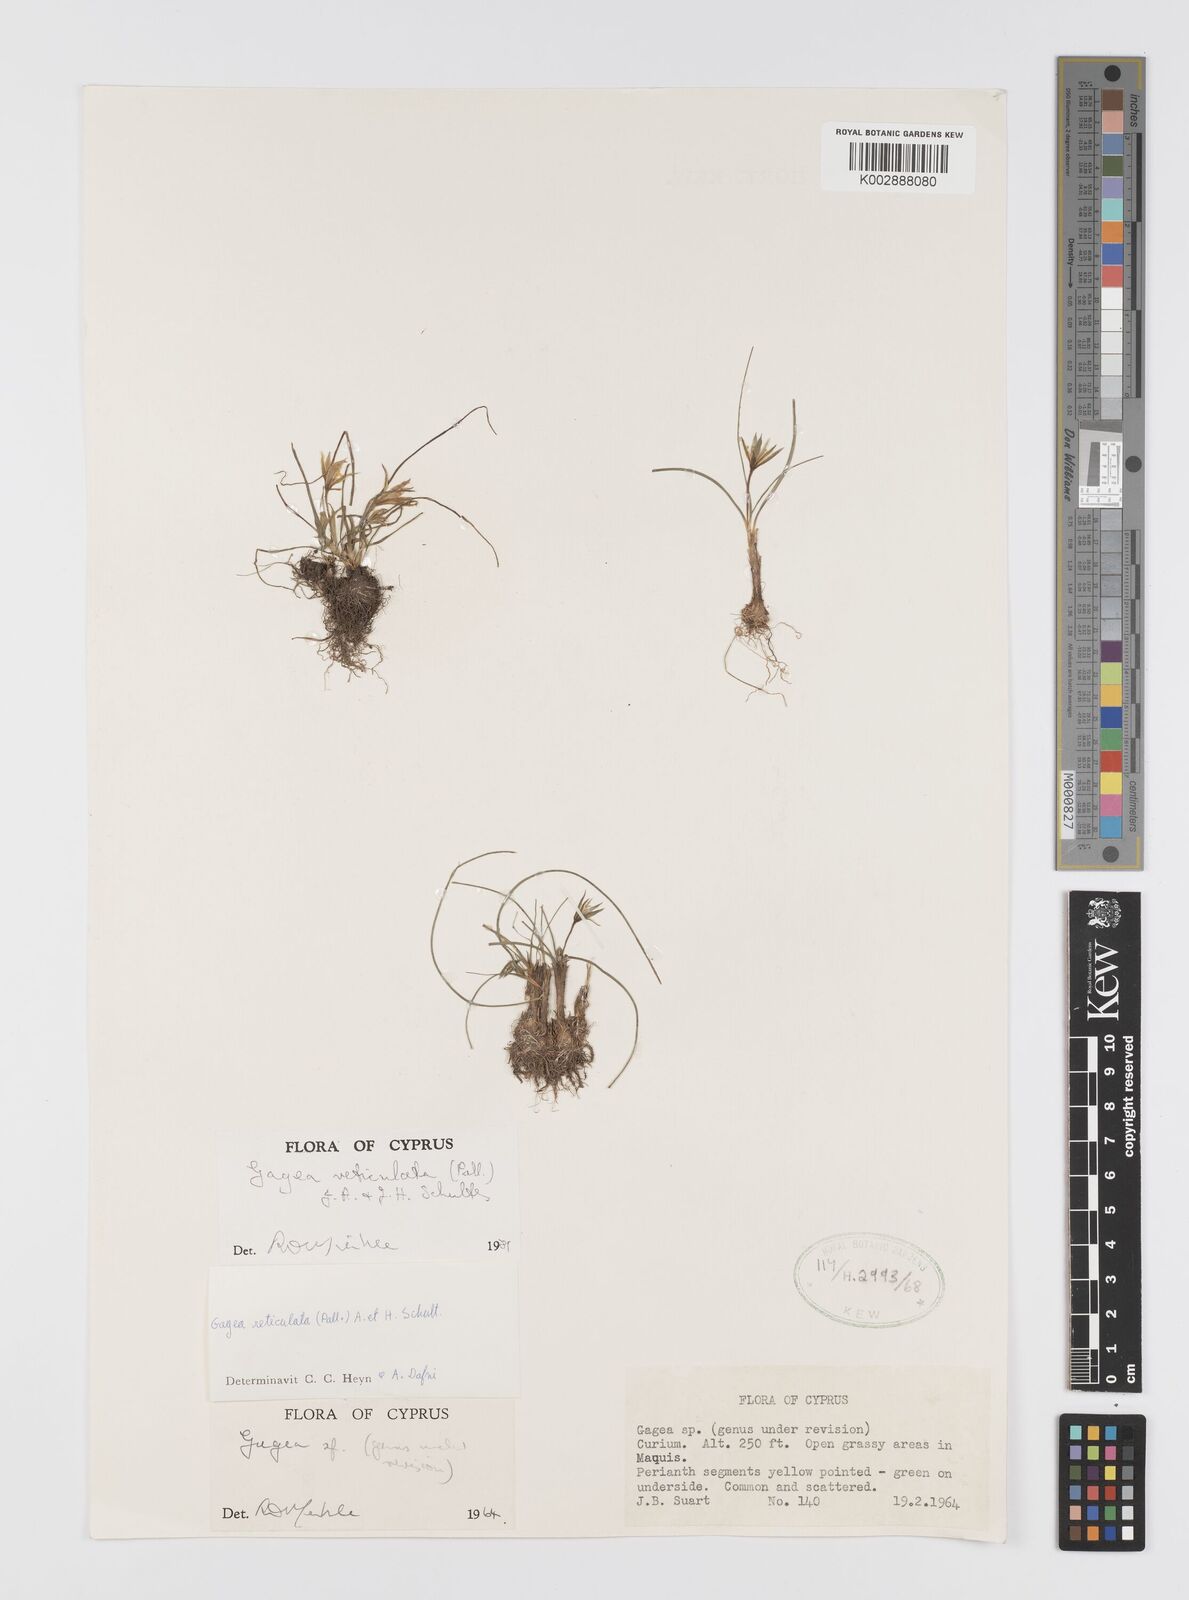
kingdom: Plantae
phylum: Tracheophyta
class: Liliopsida
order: Liliales
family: Liliaceae
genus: Gagea
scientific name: Gagea reticulata
